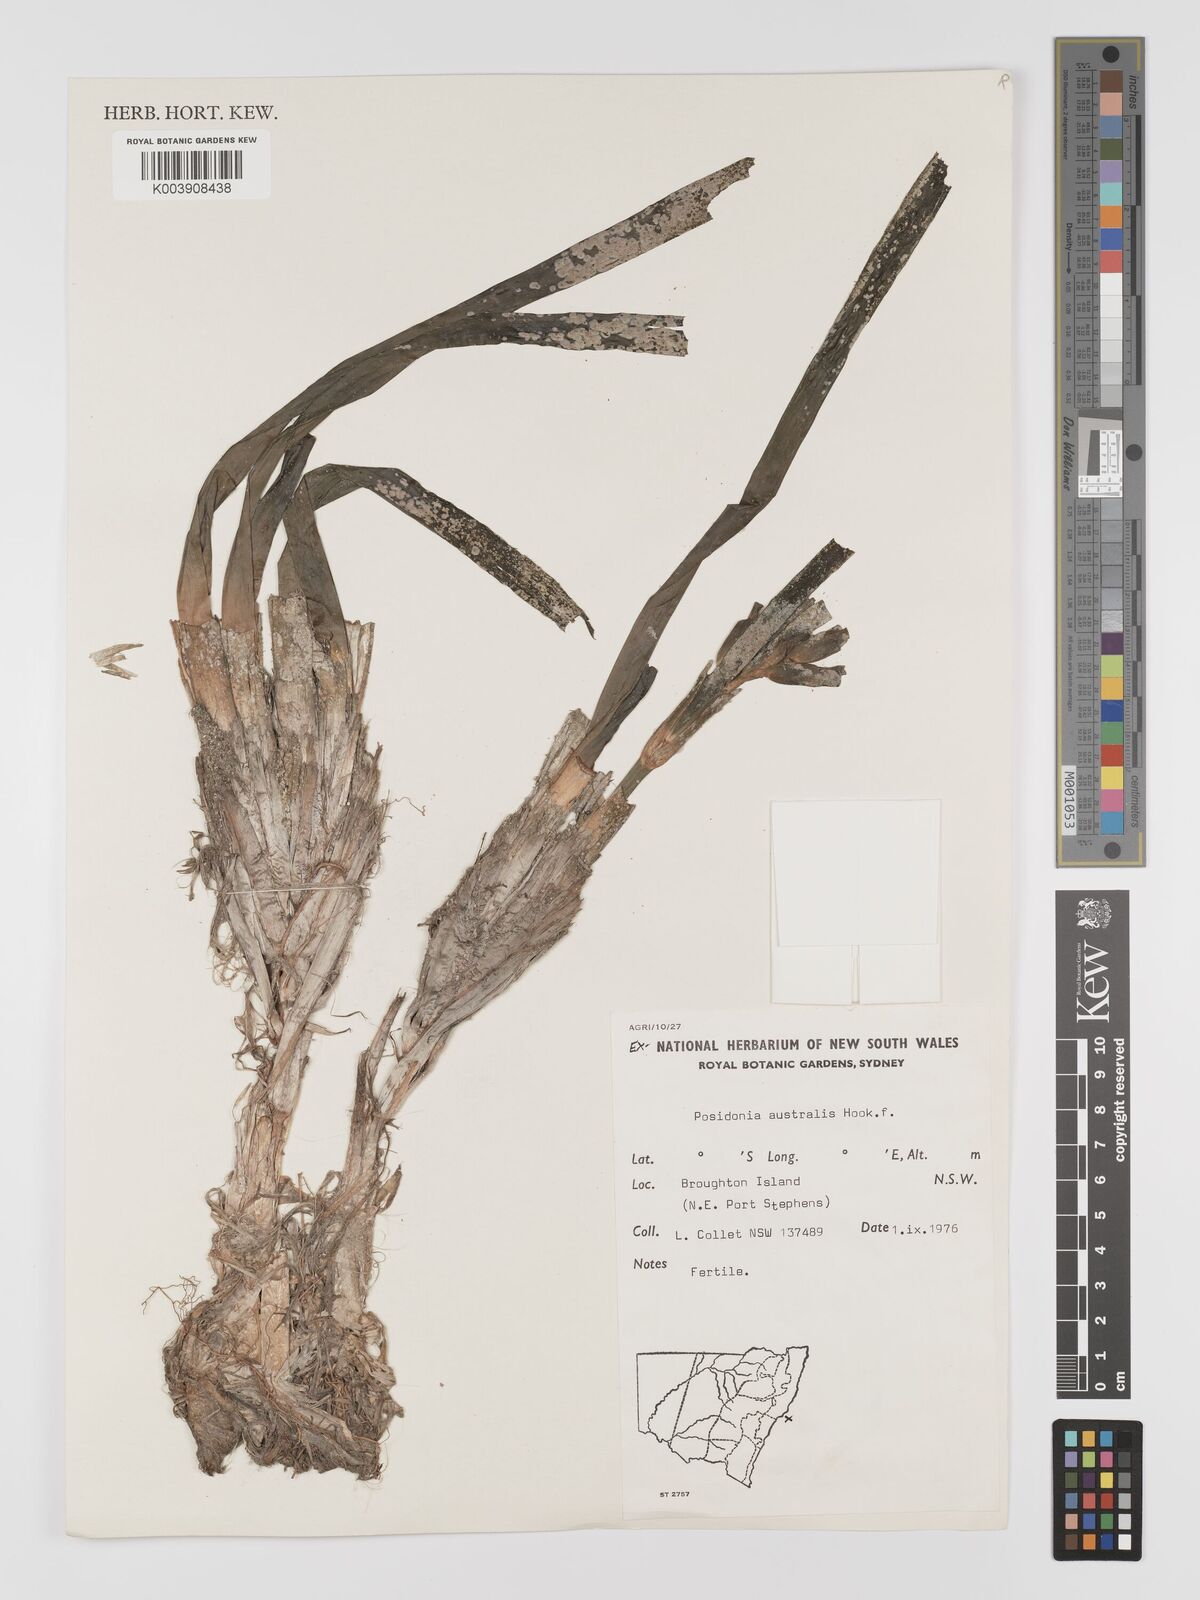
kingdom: Plantae
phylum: Tracheophyta
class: Liliopsida
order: Alismatales
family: Posidoniaceae
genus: Posidonia
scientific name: Posidonia australis
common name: Species code: pa
